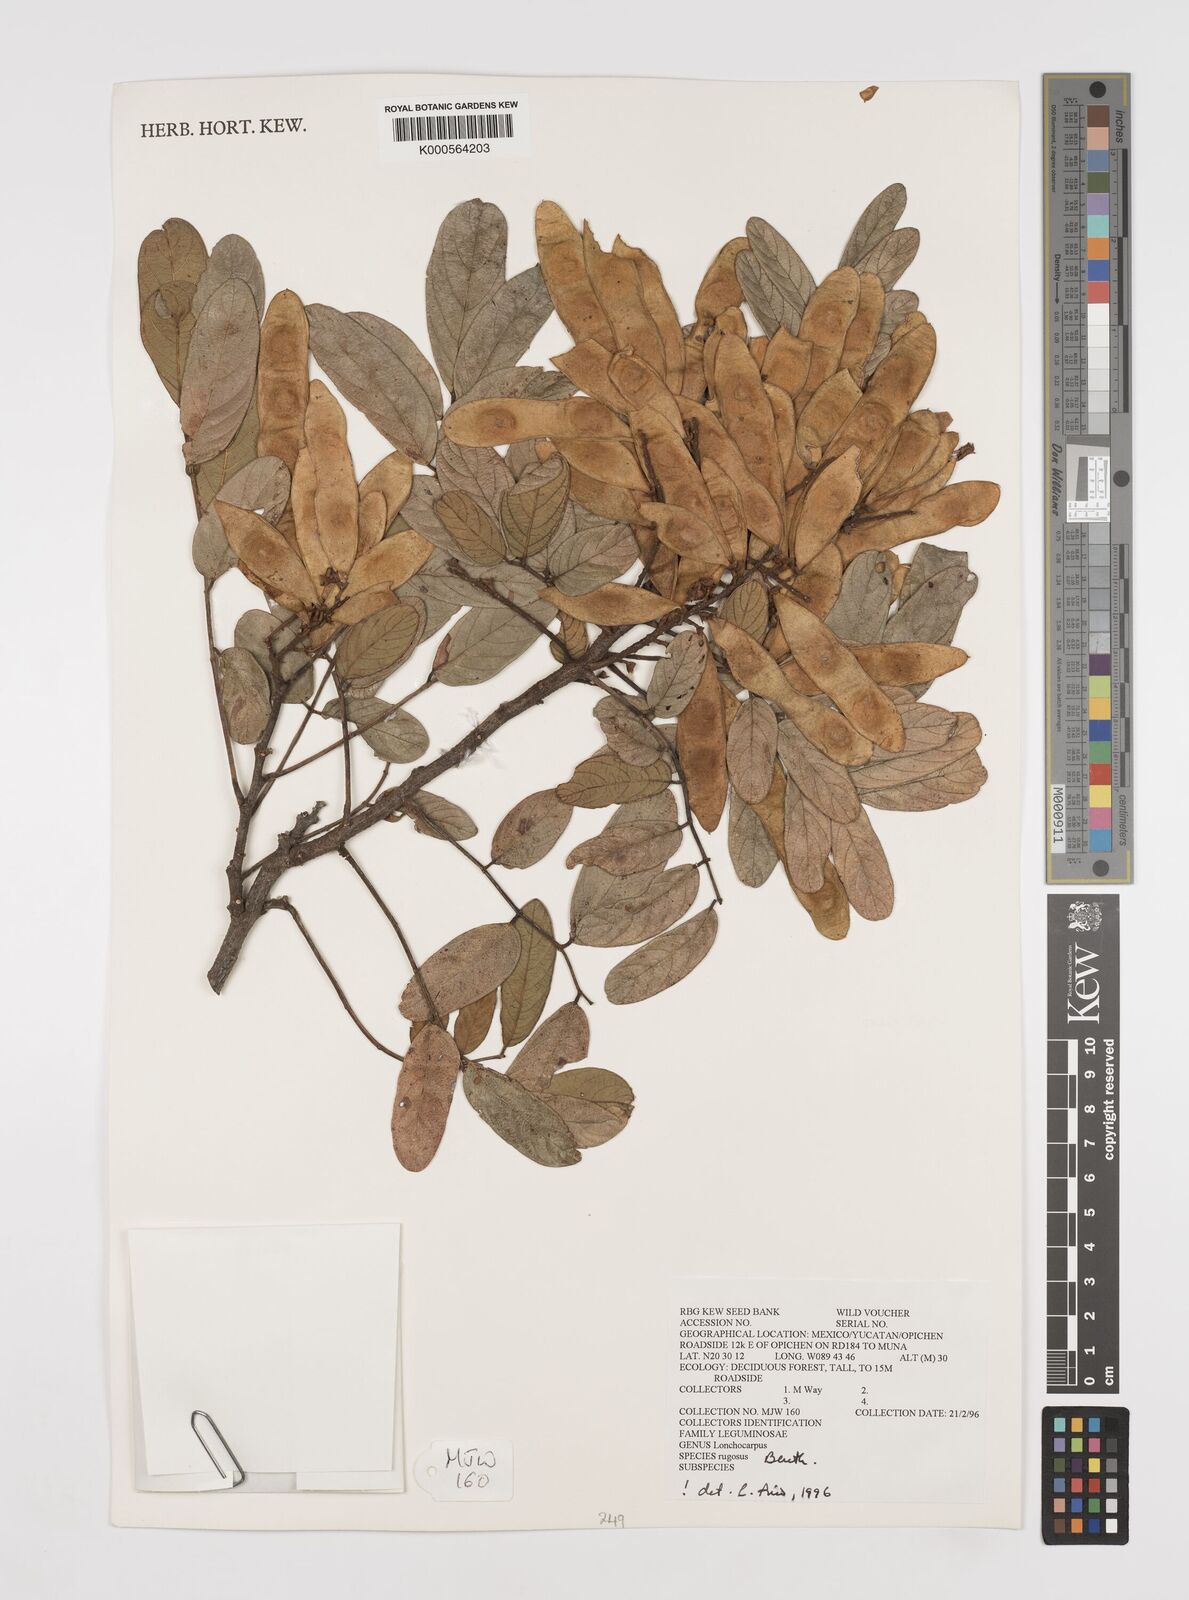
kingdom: Plantae
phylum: Tracheophyta
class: Magnoliopsida
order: Fabales
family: Fabaceae
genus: Lonchocarpus
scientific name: Lonchocarpus rugosus
